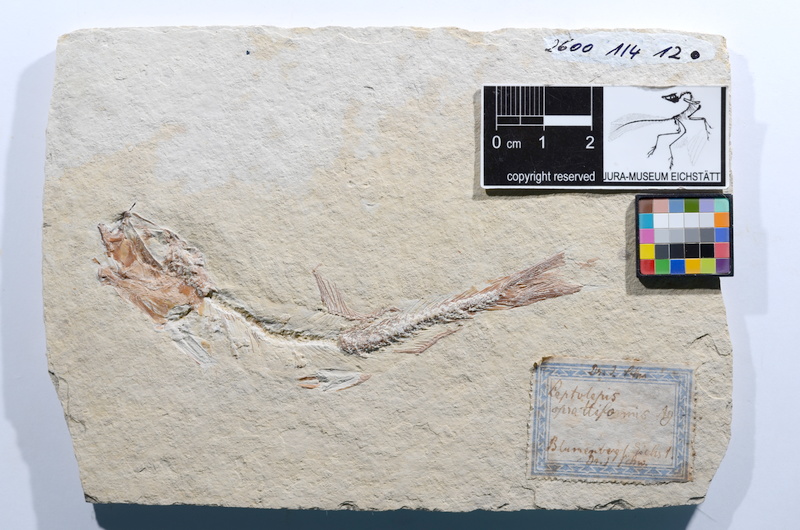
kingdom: Animalia
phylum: Chordata
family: Ascalaboidae
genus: Tharsis
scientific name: Tharsis dubius
